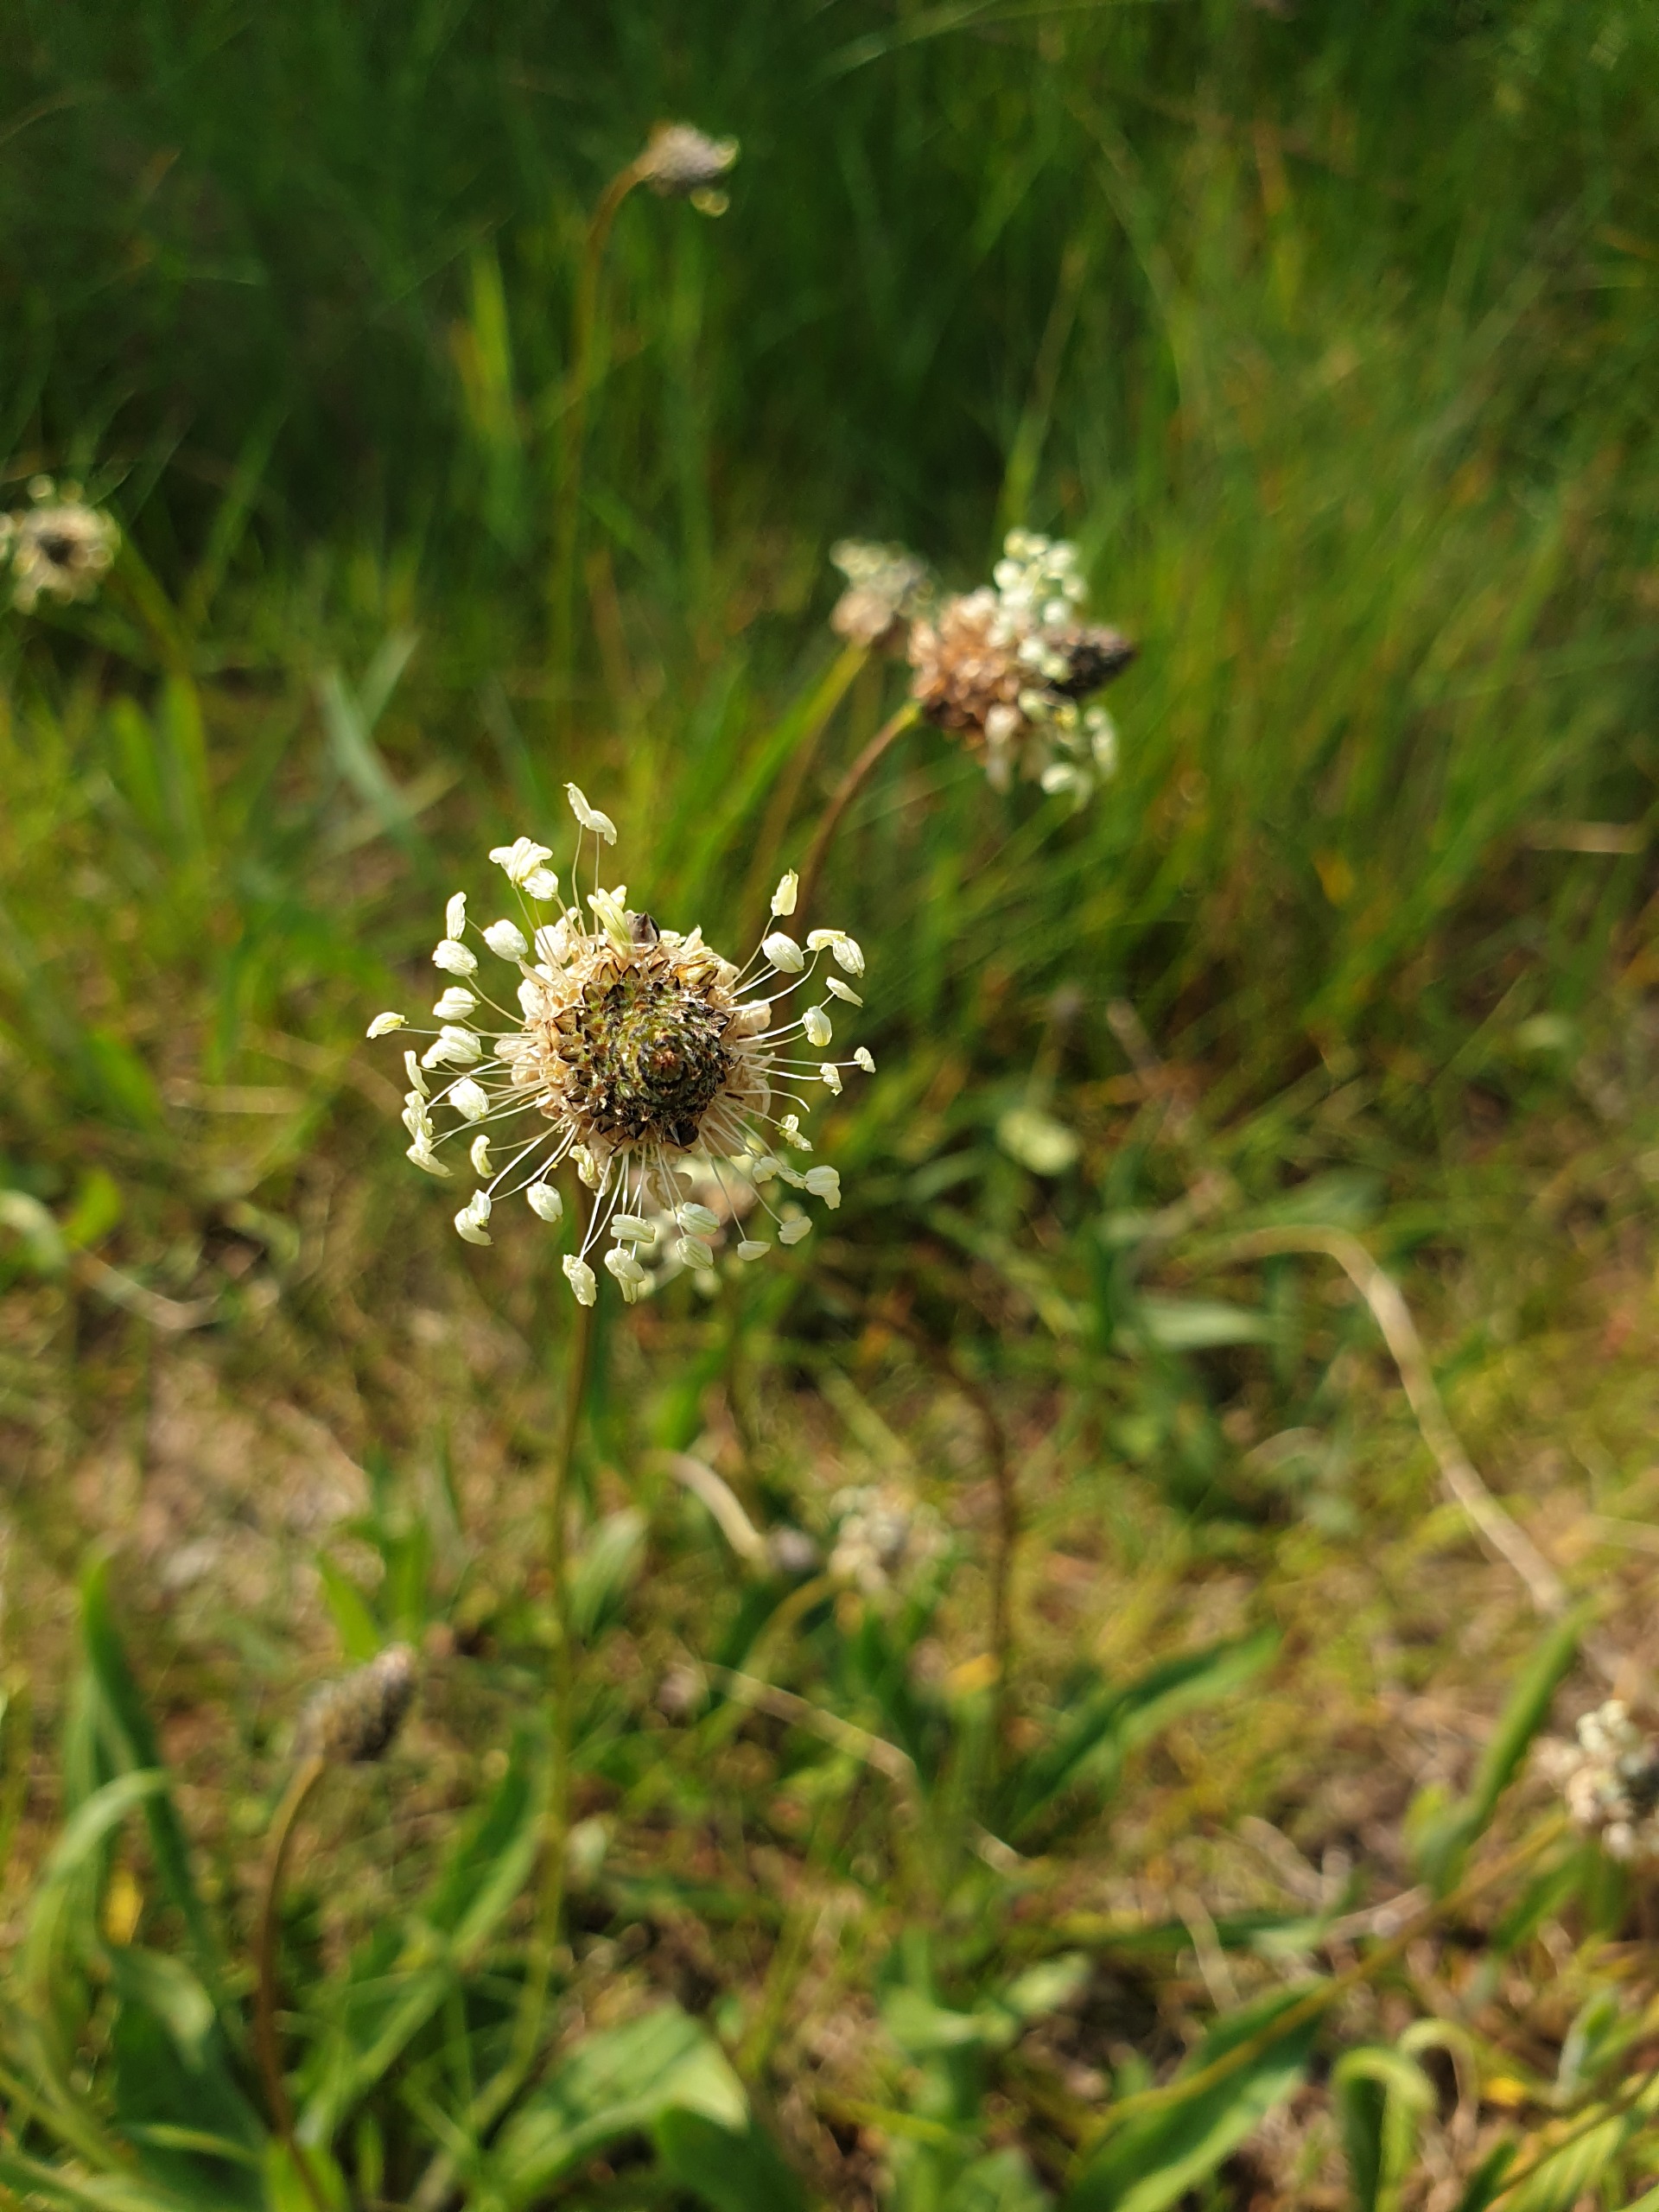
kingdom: Plantae
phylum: Tracheophyta
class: Magnoliopsida
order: Lamiales
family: Plantaginaceae
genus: Plantago
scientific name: Plantago lanceolata
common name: Lancet-vejbred
